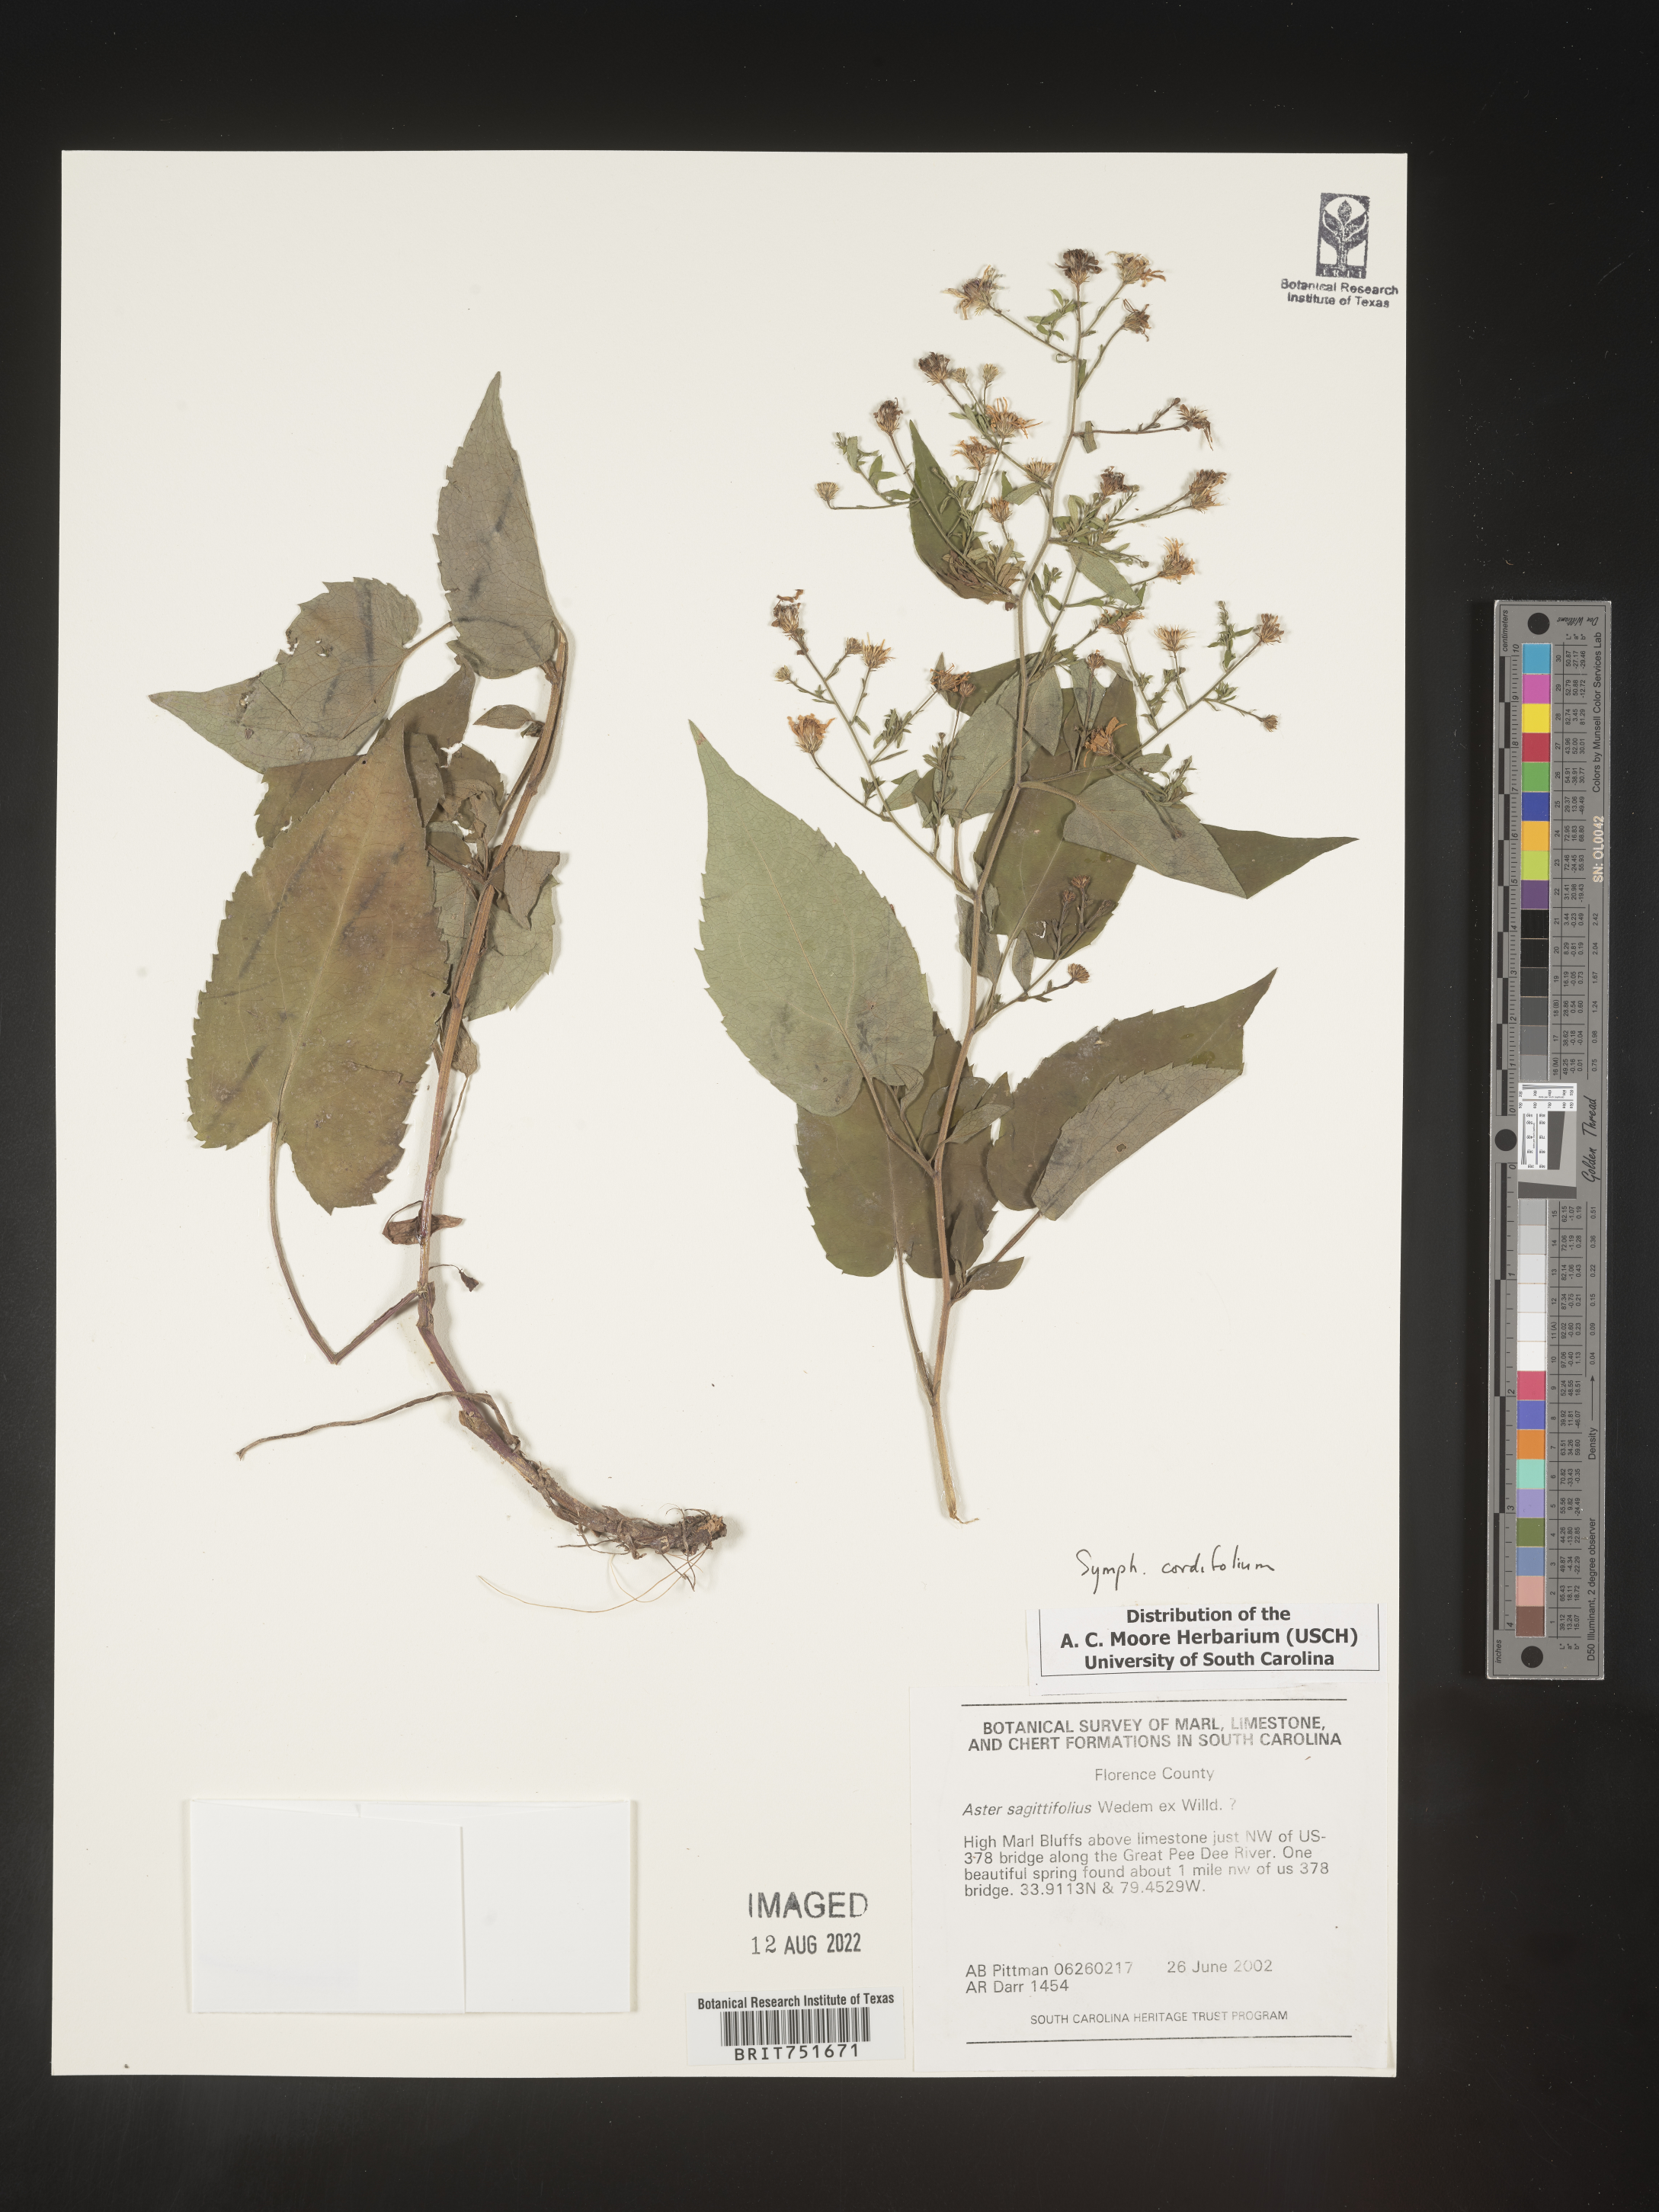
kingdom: Plantae
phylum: Tracheophyta
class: Magnoliopsida
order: Asterales
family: Asteraceae
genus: Symphyotrichum
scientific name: Symphyotrichum cordifolium
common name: Beeweed
